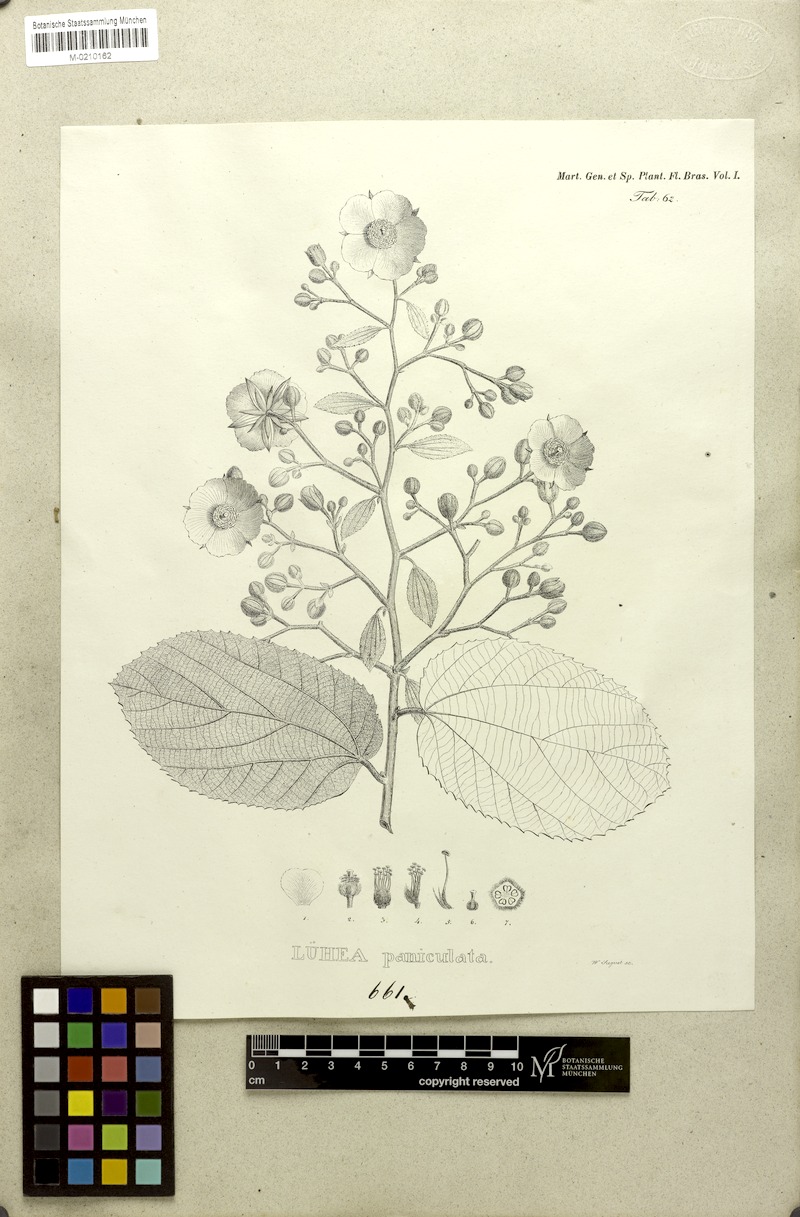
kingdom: Plantae
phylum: Tracheophyta
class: Magnoliopsida
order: Malvales
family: Malvaceae
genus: Luehea
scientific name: Luehea paniculata
